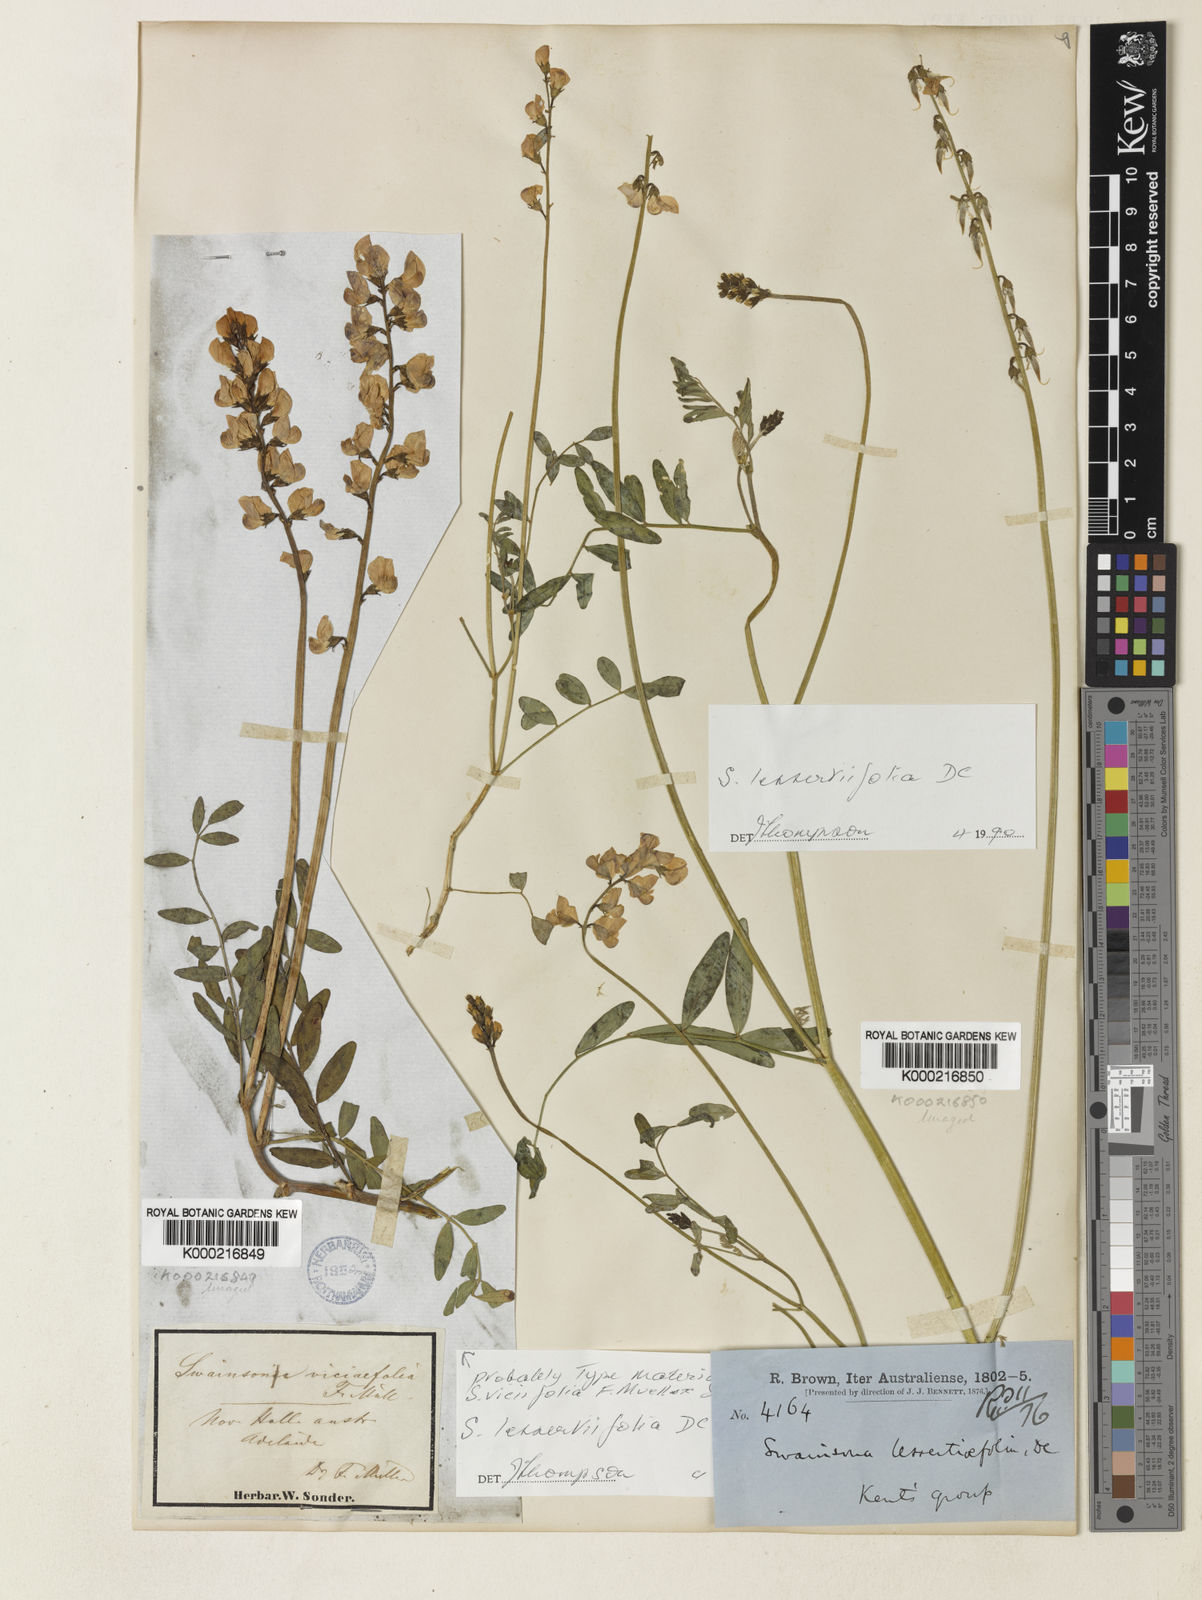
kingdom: Plantae
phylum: Tracheophyta
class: Magnoliopsida
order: Fabales
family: Fabaceae
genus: Swainsona
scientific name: Swainsona lessertiifolia
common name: Bog-pea
